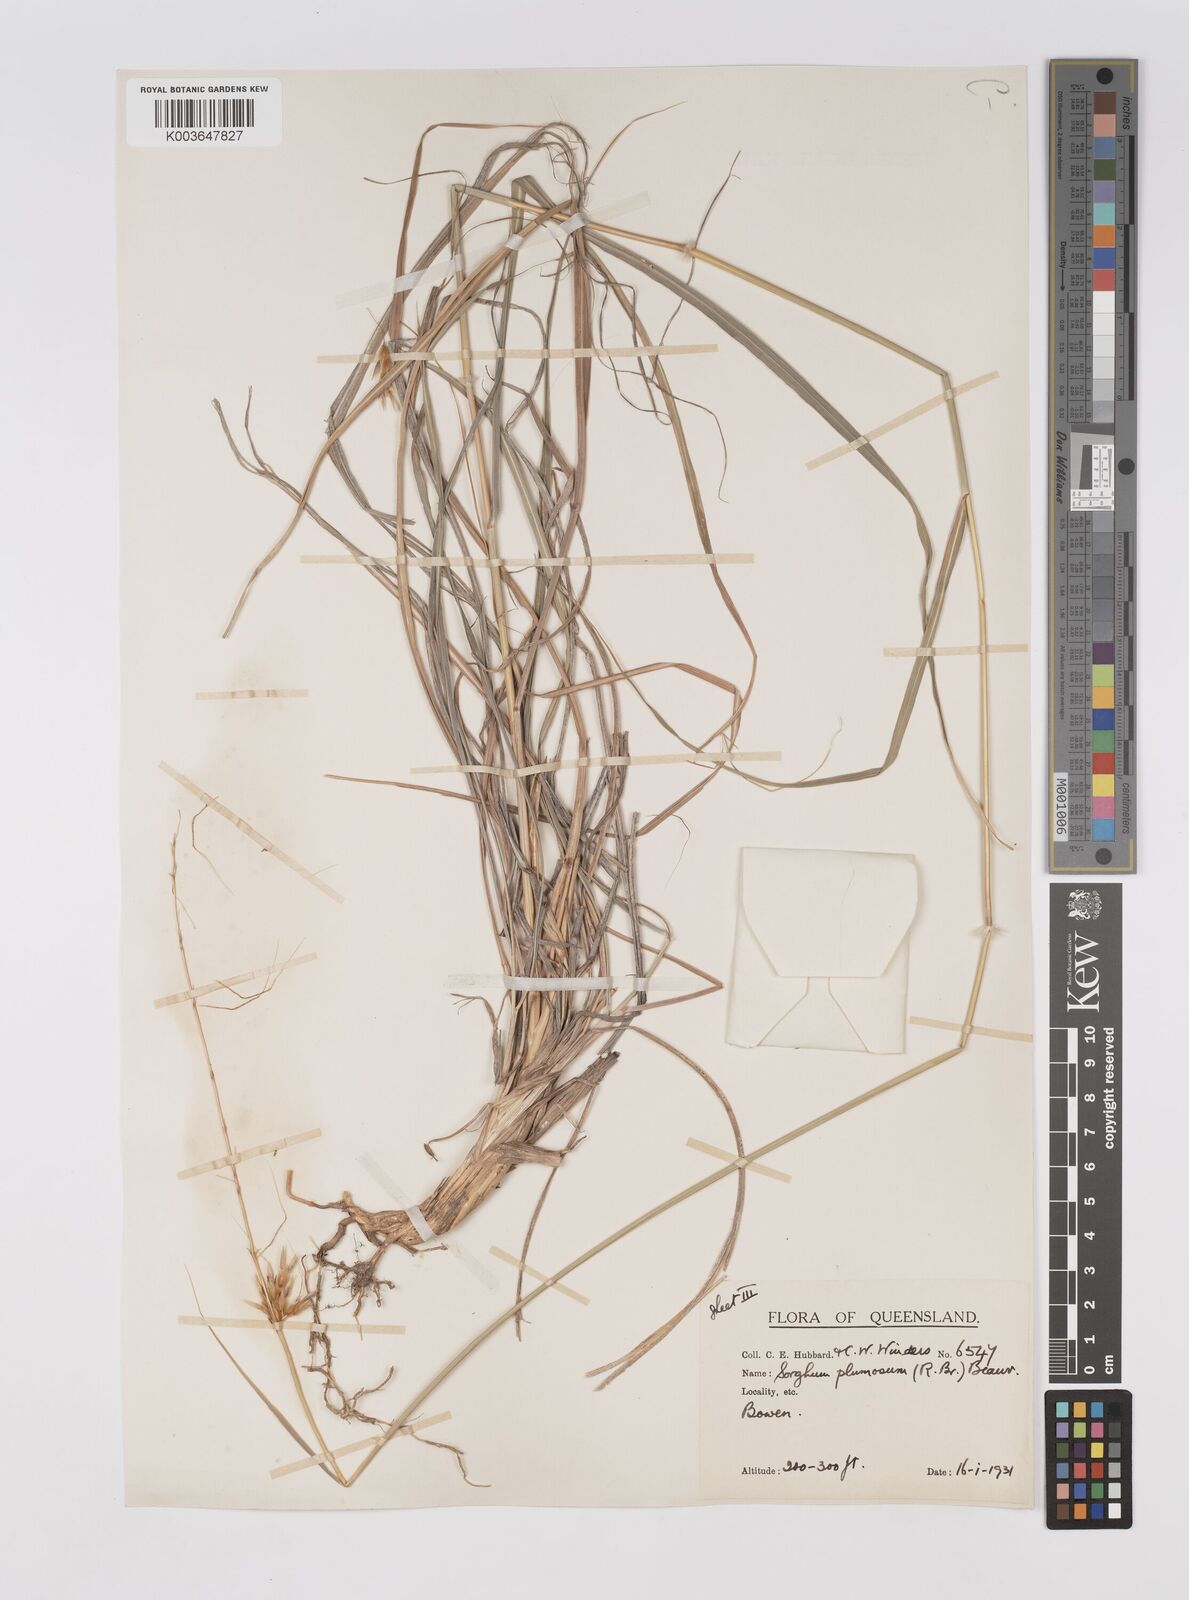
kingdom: Plantae
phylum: Tracheophyta
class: Liliopsida
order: Poales
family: Poaceae
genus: Sarga
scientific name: Sarga plumosa
